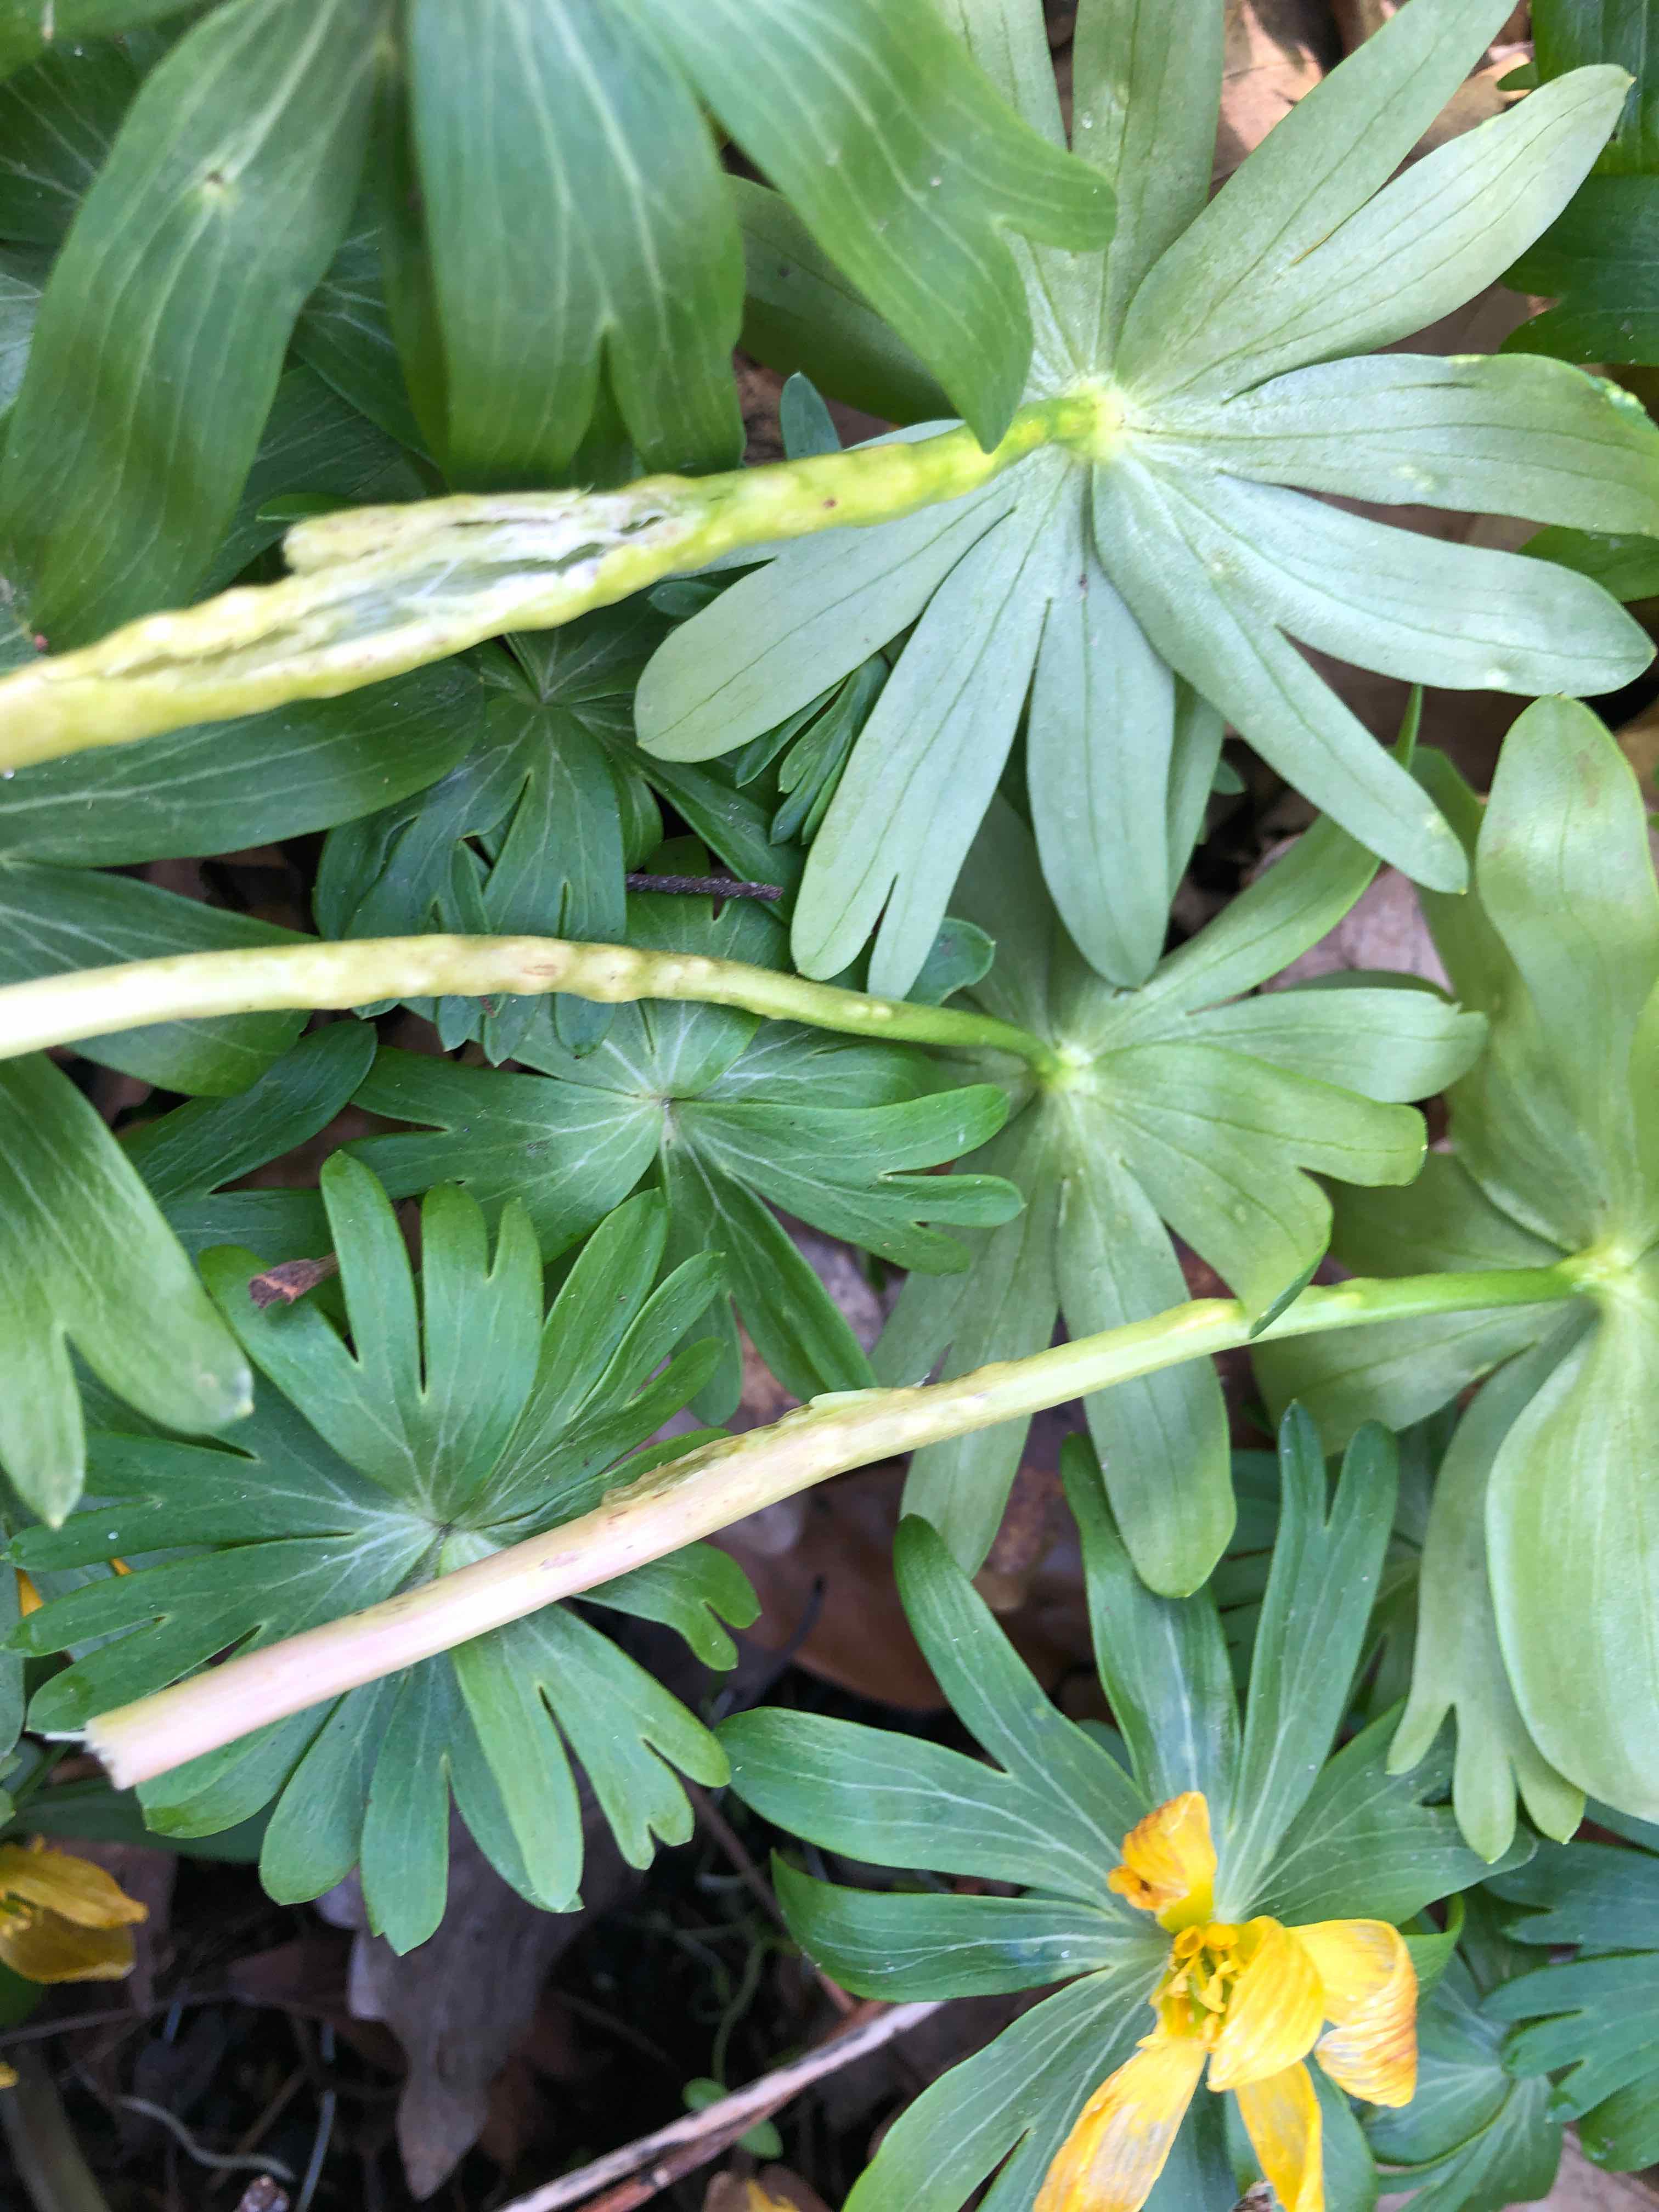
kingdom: Fungi
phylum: Basidiomycota
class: Ustilaginomycetes
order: Urocystidales
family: Urocystidaceae
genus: Urocystis
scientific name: Urocystis eranthidis
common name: erantis-brand
